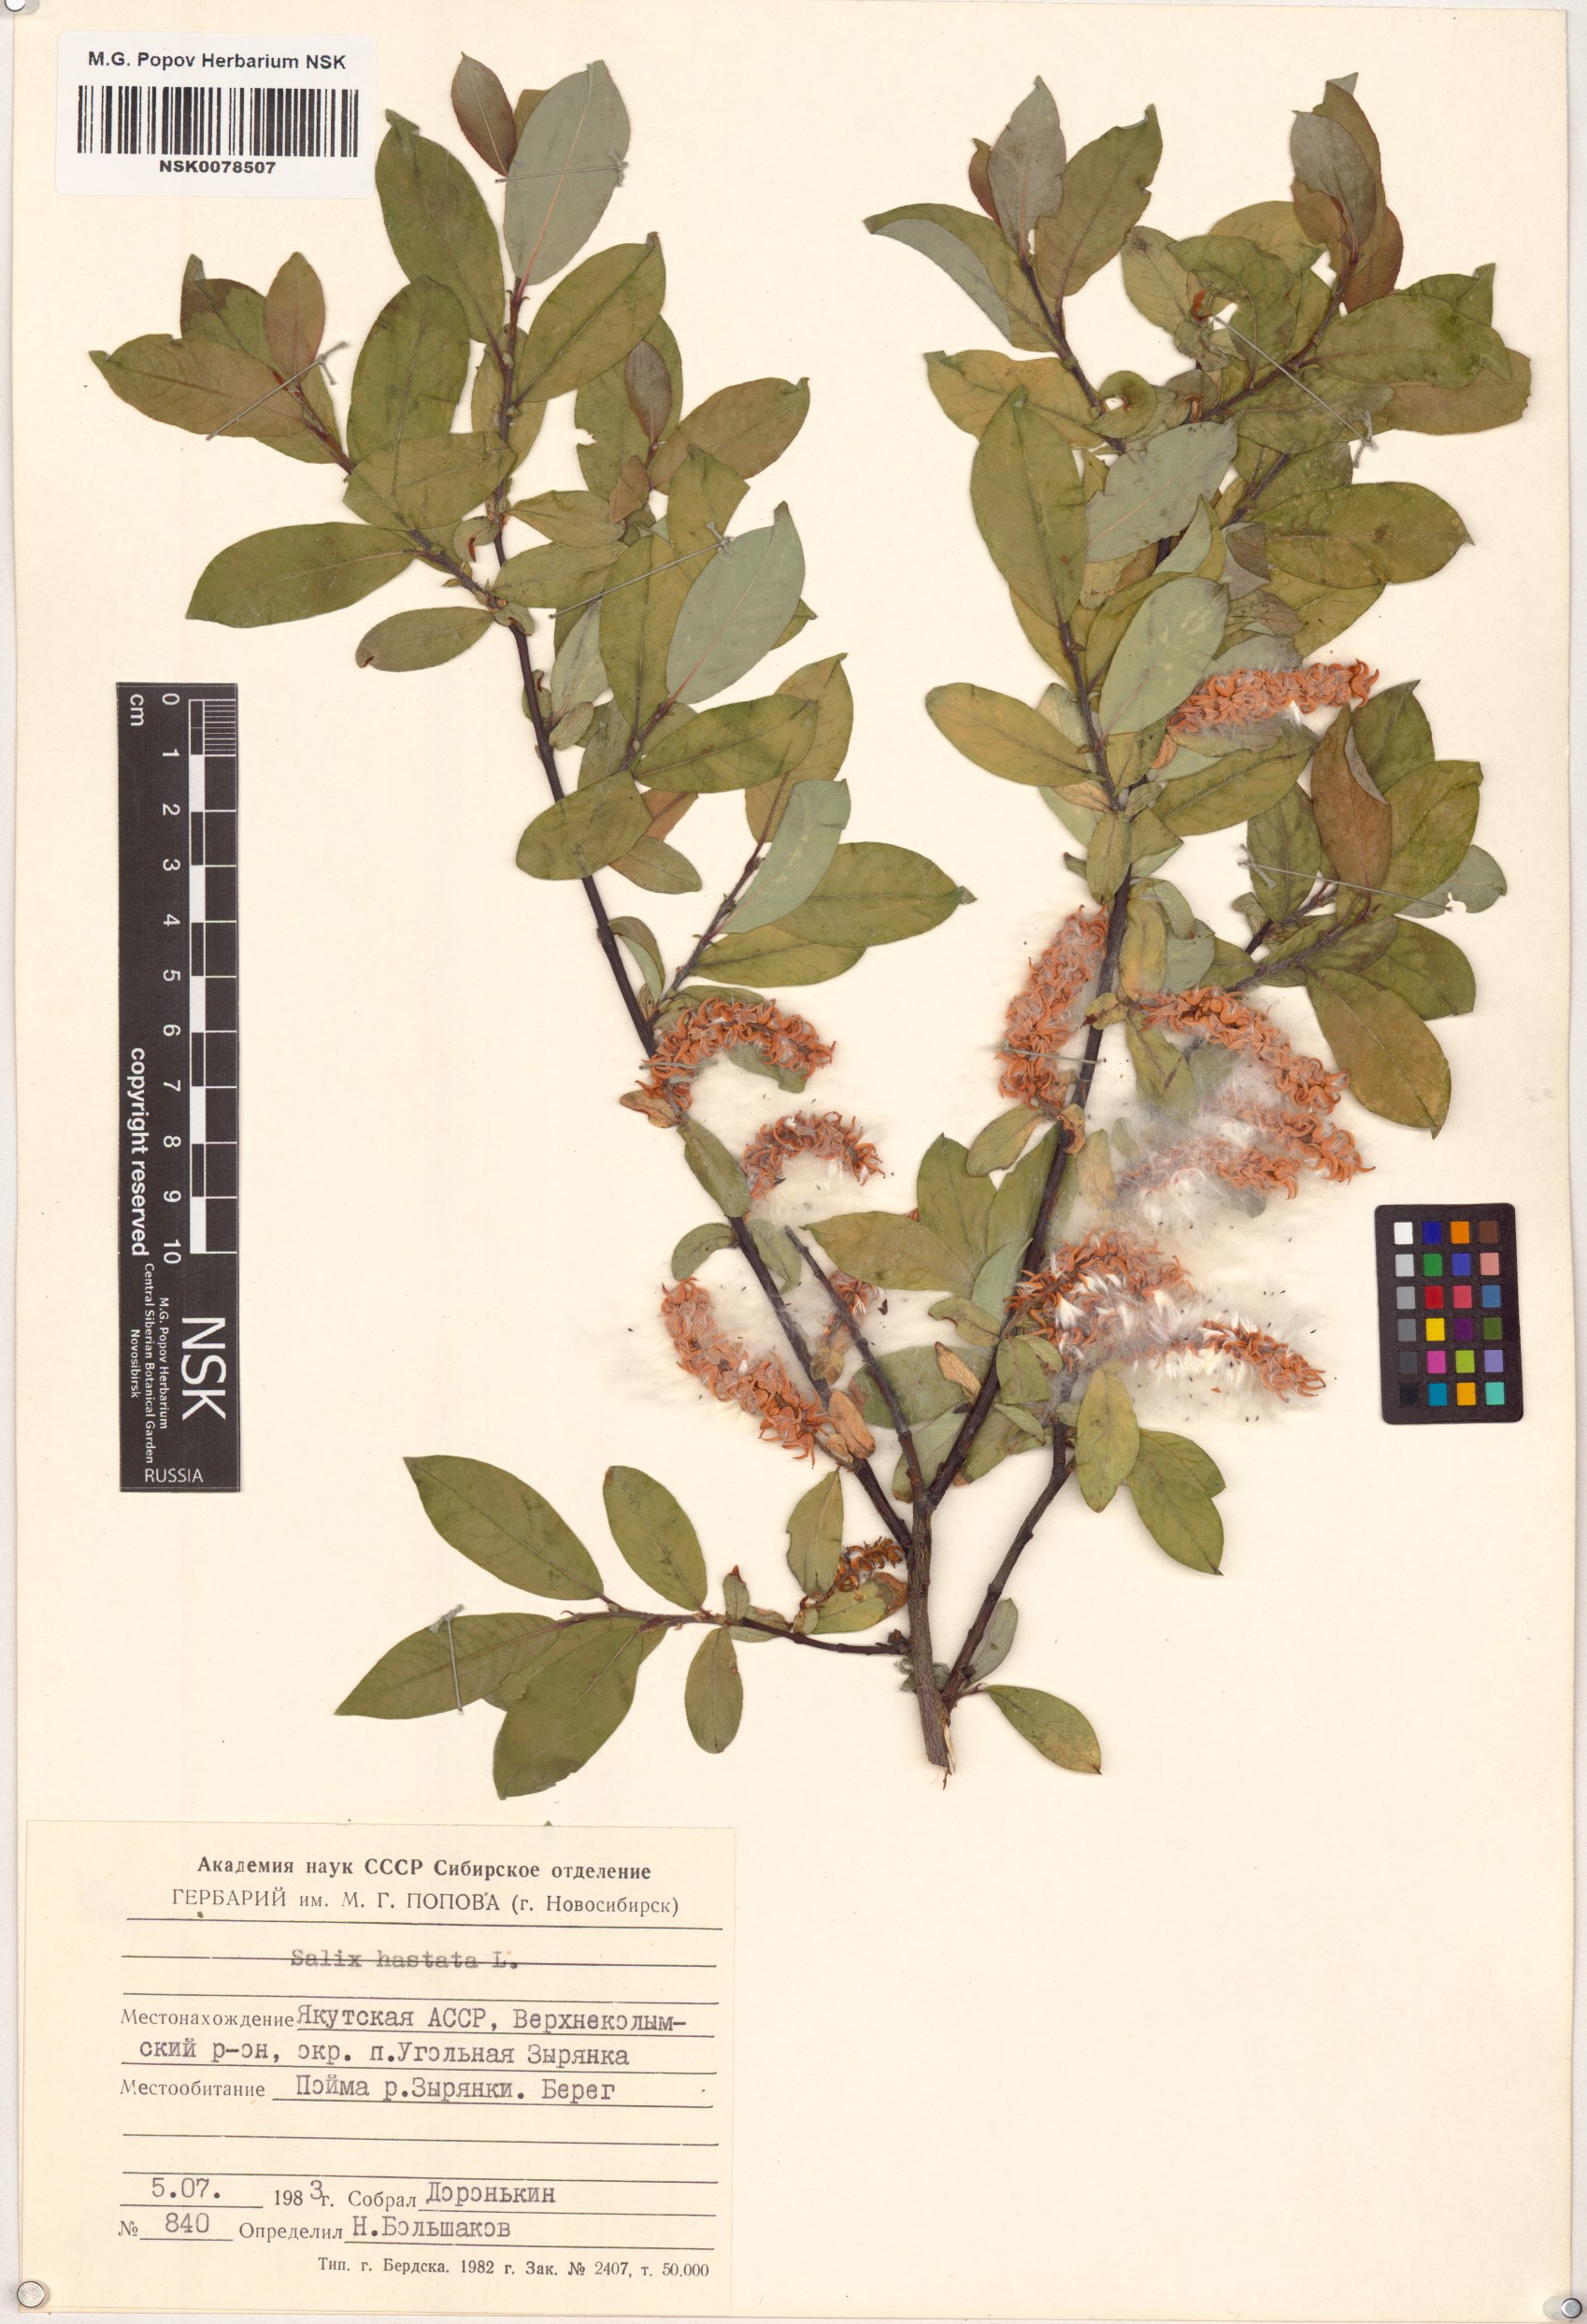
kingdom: Plantae
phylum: Tracheophyta
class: Magnoliopsida
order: Malpighiales
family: Salicaceae
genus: Salix
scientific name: Salix hastata
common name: Halberd willow
